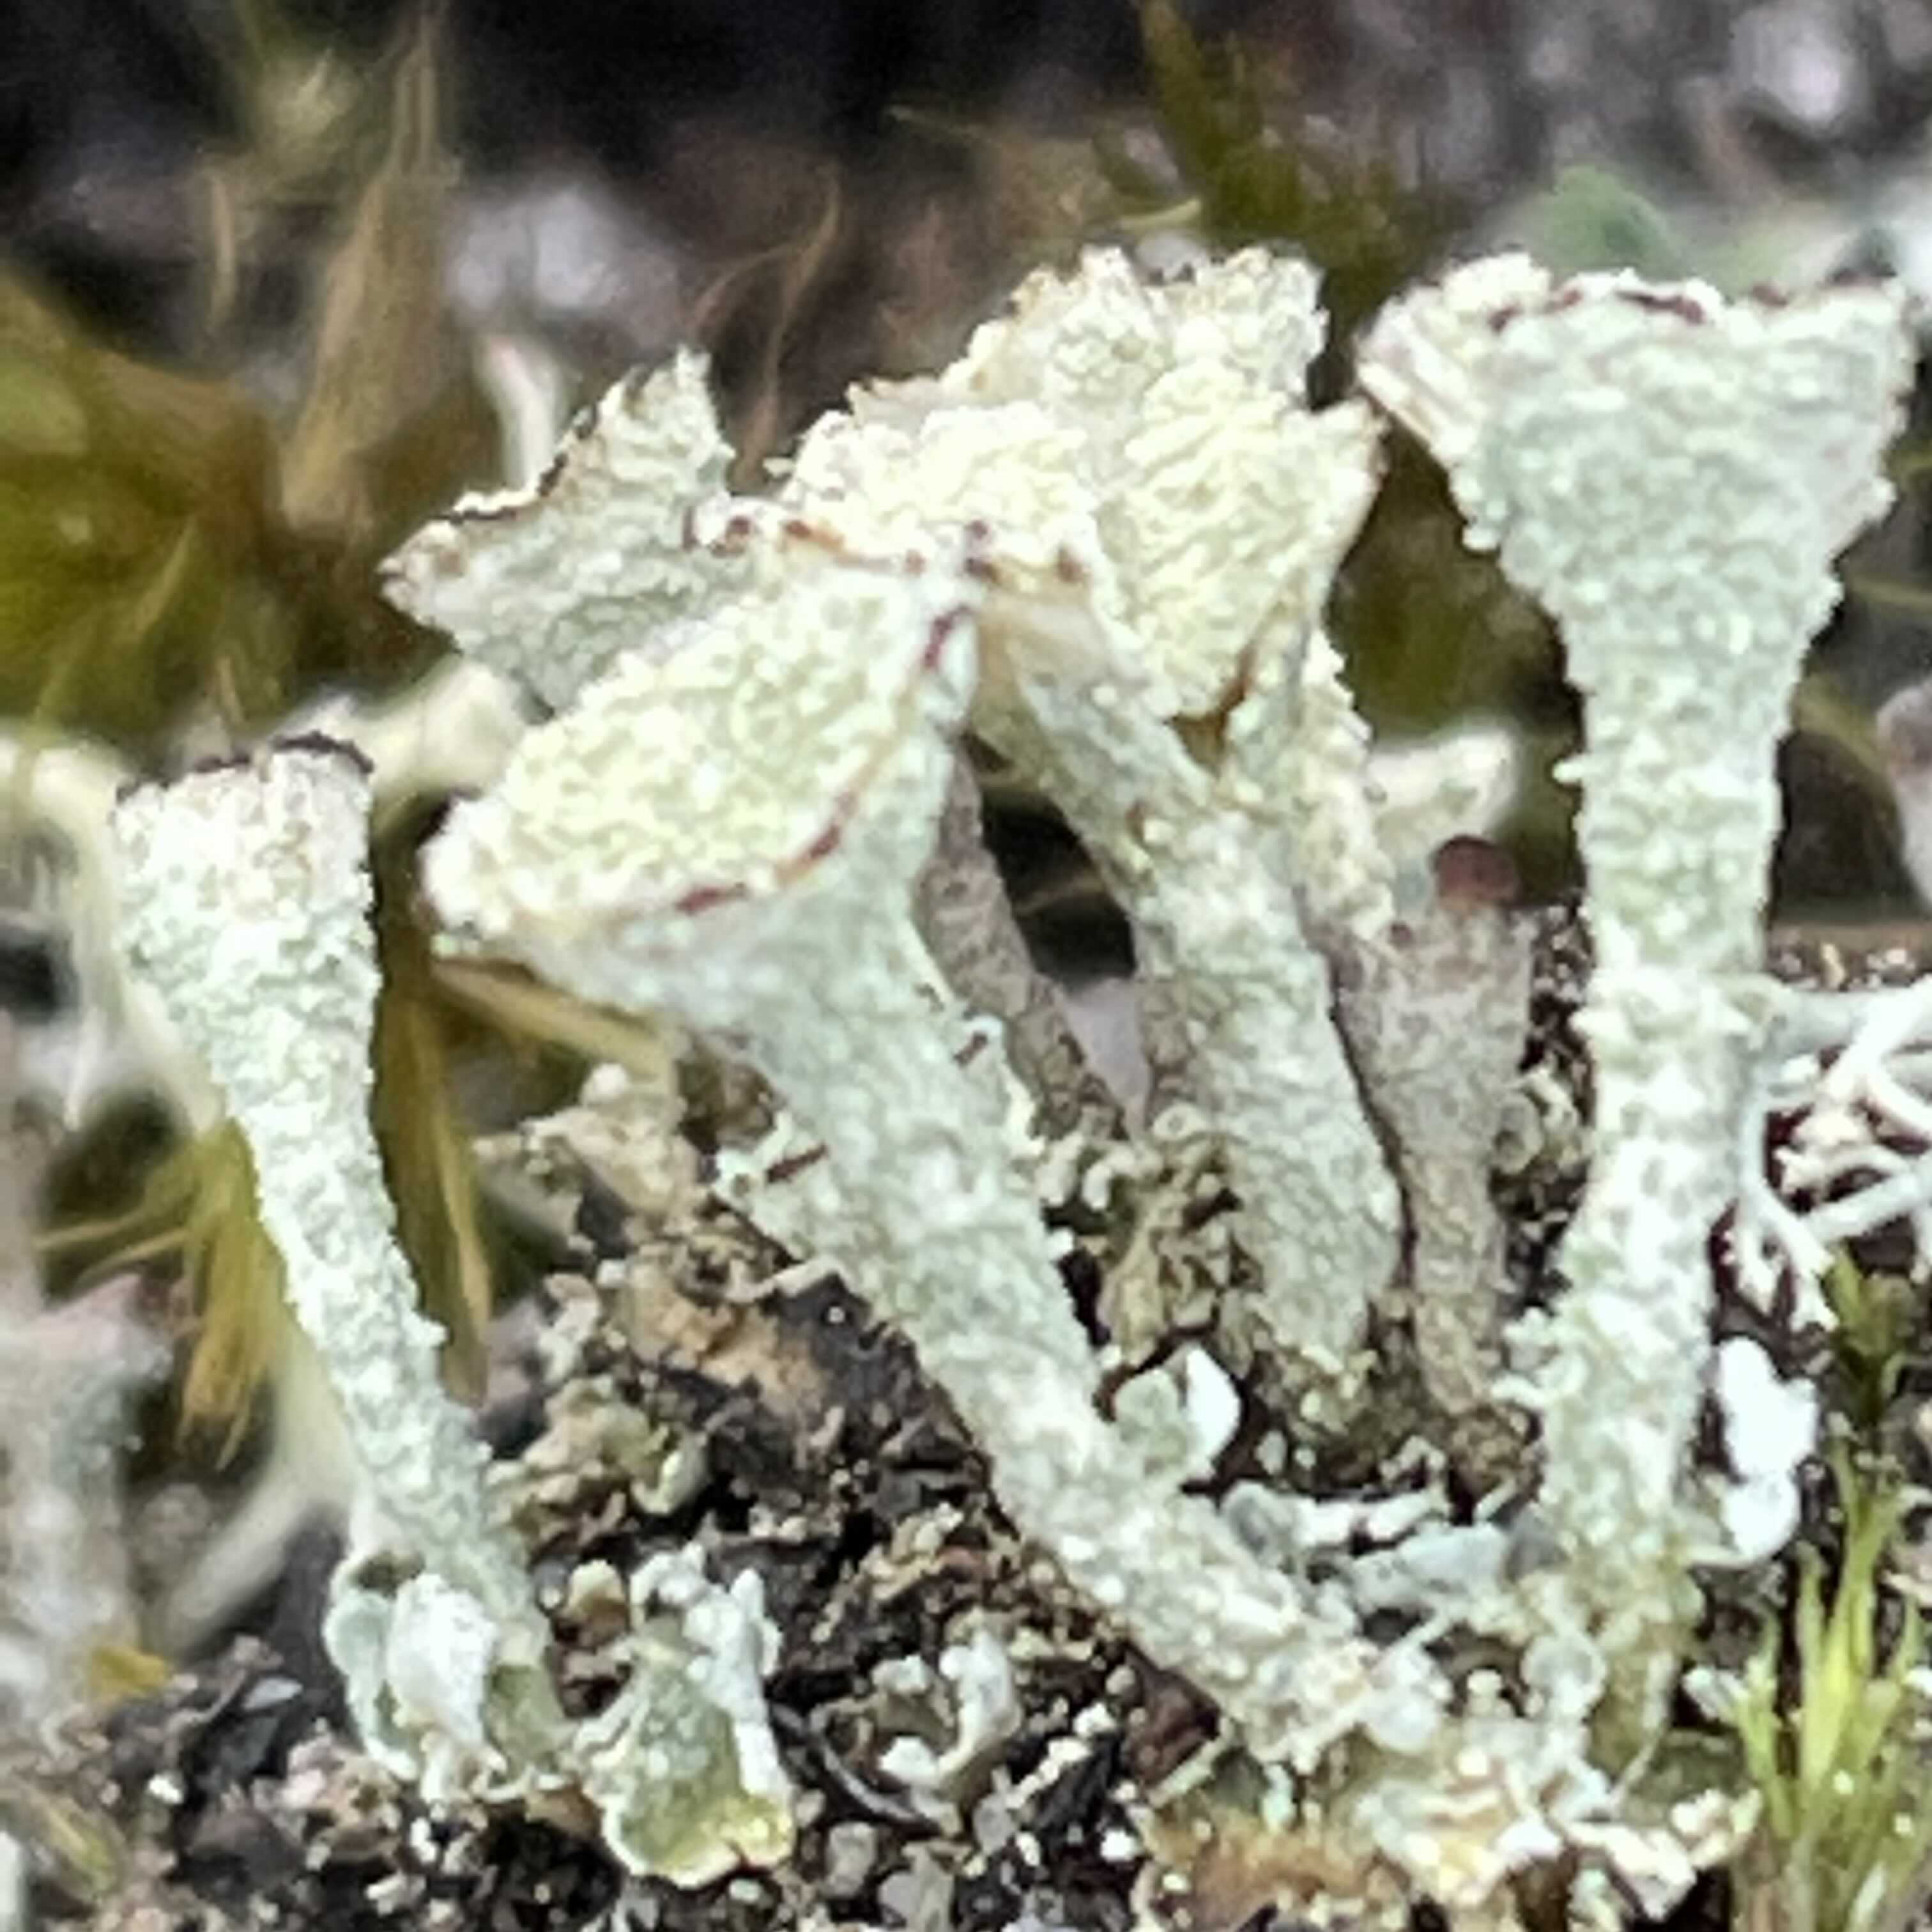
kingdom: Fungi
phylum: Ascomycota
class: Lecanoromycetes
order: Lecanorales
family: Cladoniaceae
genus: Cladonia
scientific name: Cladonia
